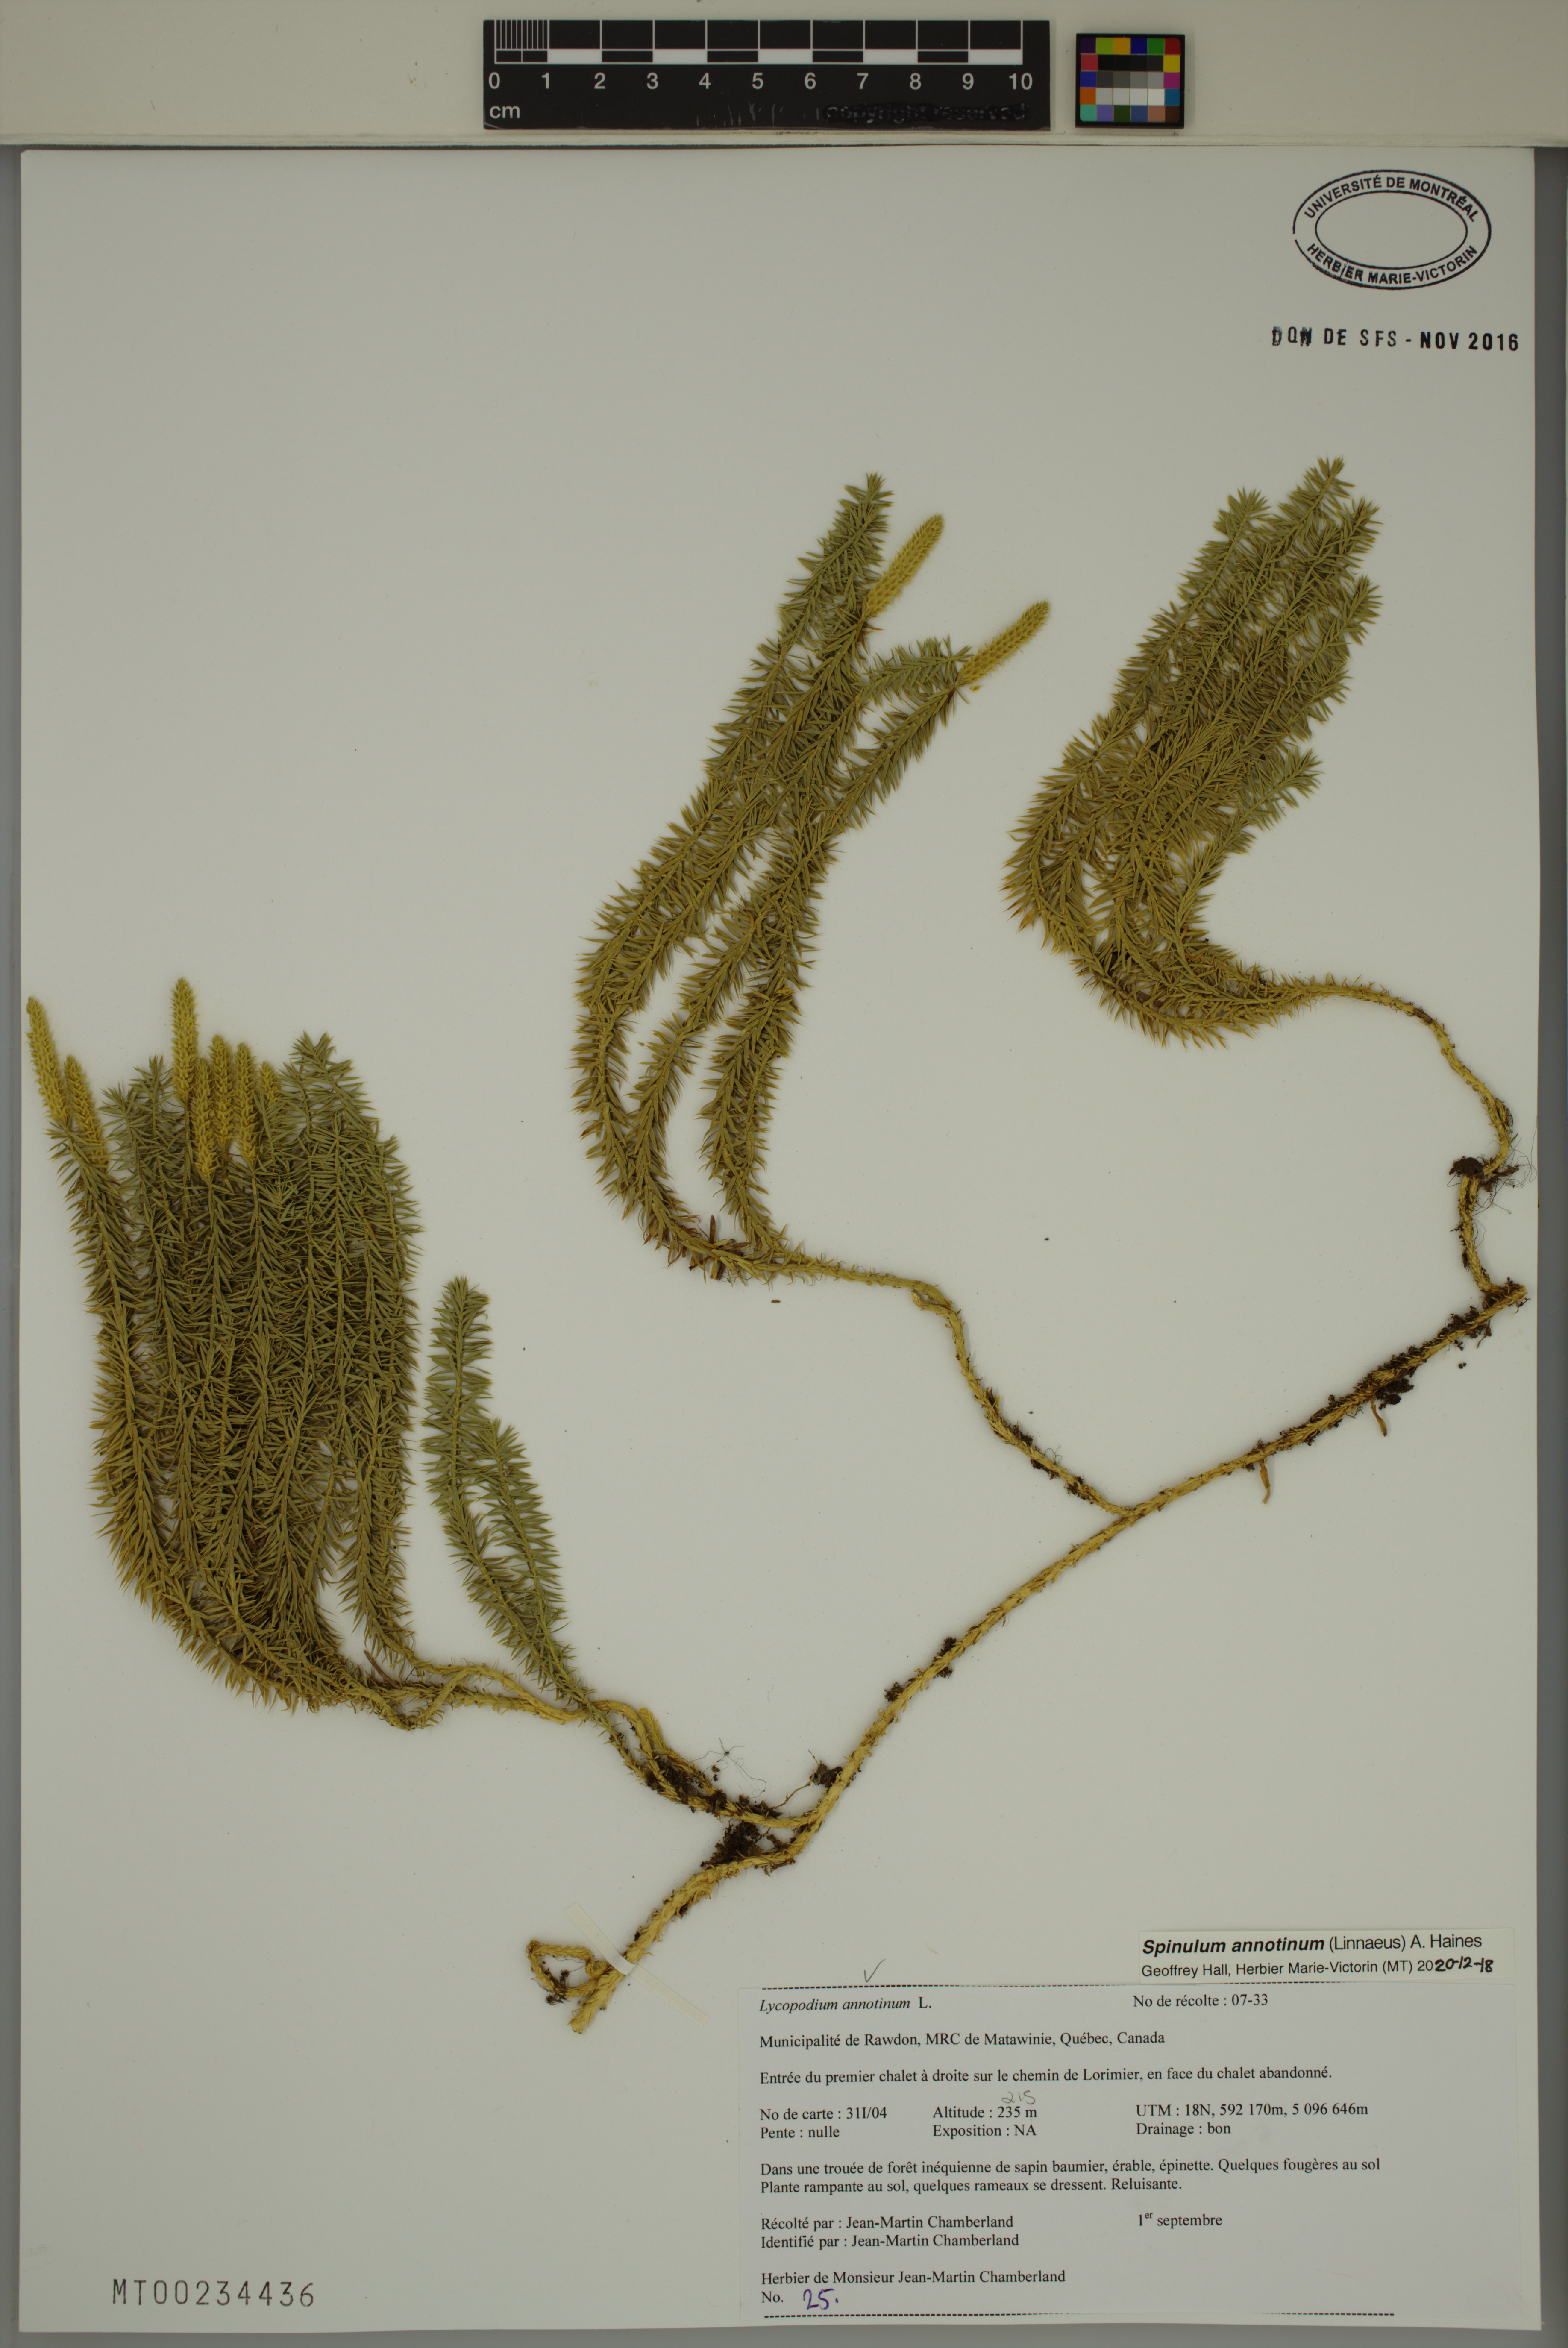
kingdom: Plantae
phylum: Tracheophyta
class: Lycopodiopsida
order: Lycopodiales
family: Lycopodiaceae
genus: Spinulum
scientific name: Spinulum annotinum
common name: Interrupted club-moss
